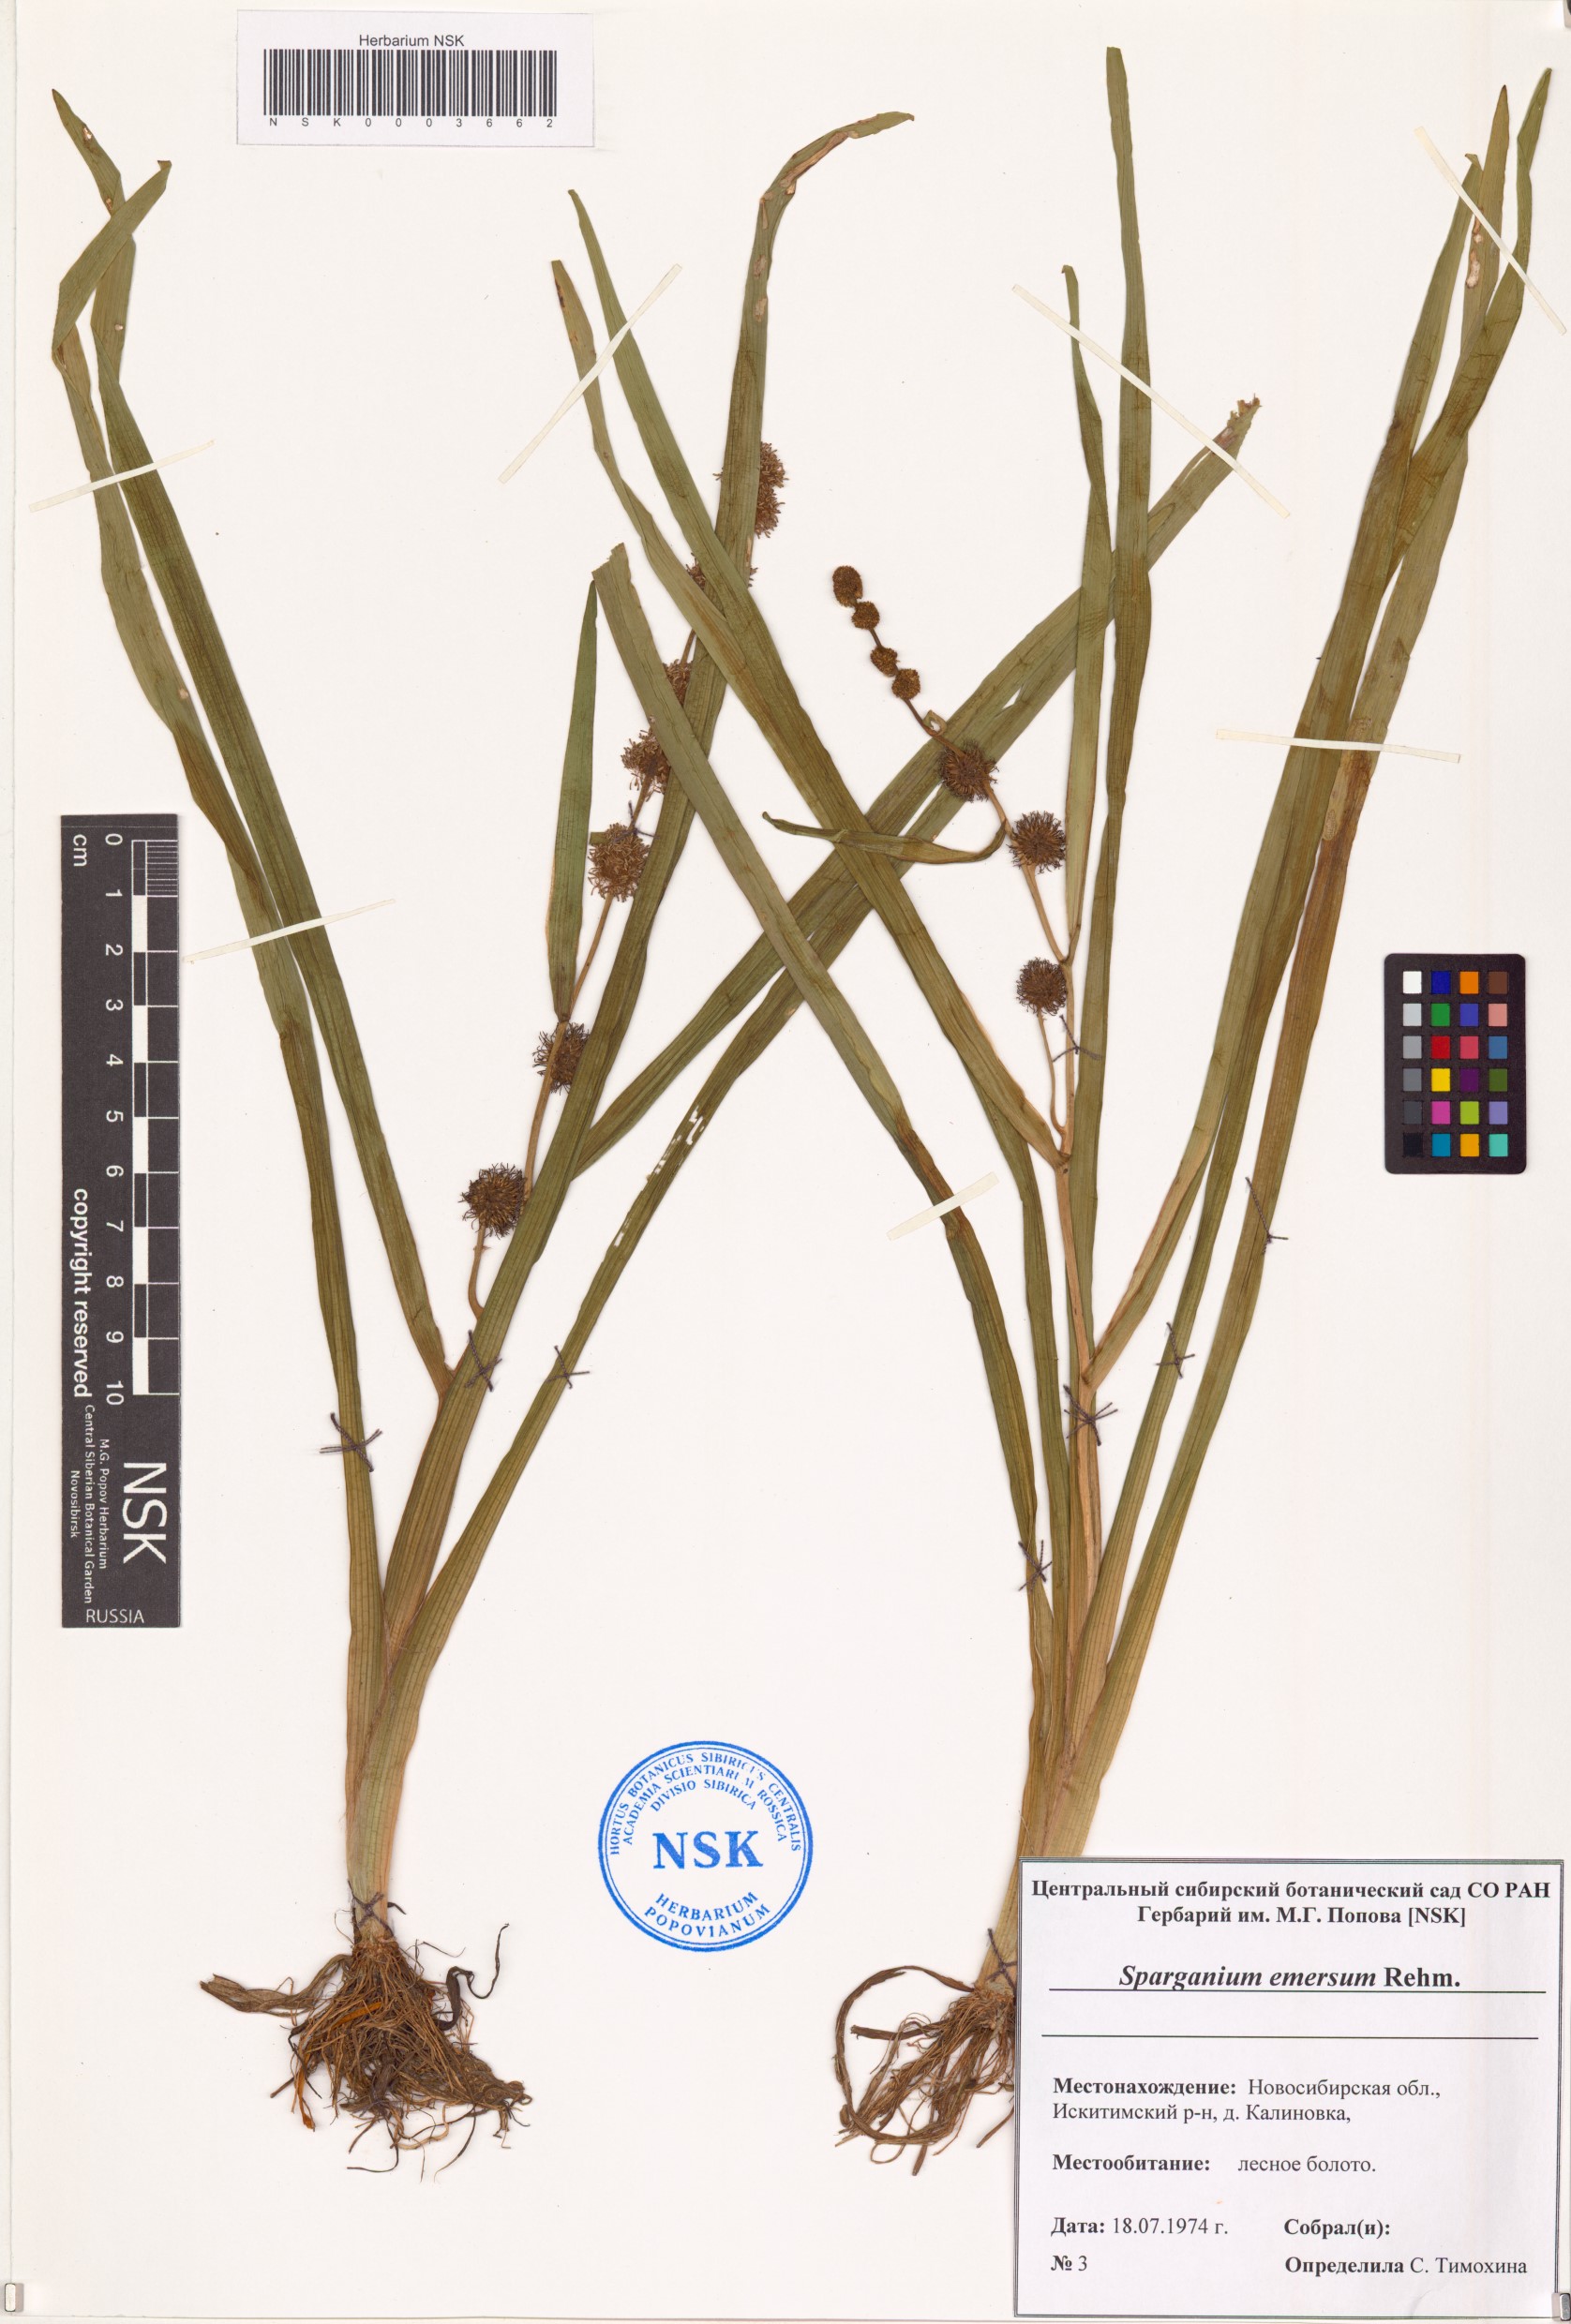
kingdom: Plantae
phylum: Tracheophyta
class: Liliopsida
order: Poales
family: Typhaceae
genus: Sparganium
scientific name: Sparganium emersum
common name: Unbranched bur-reed
